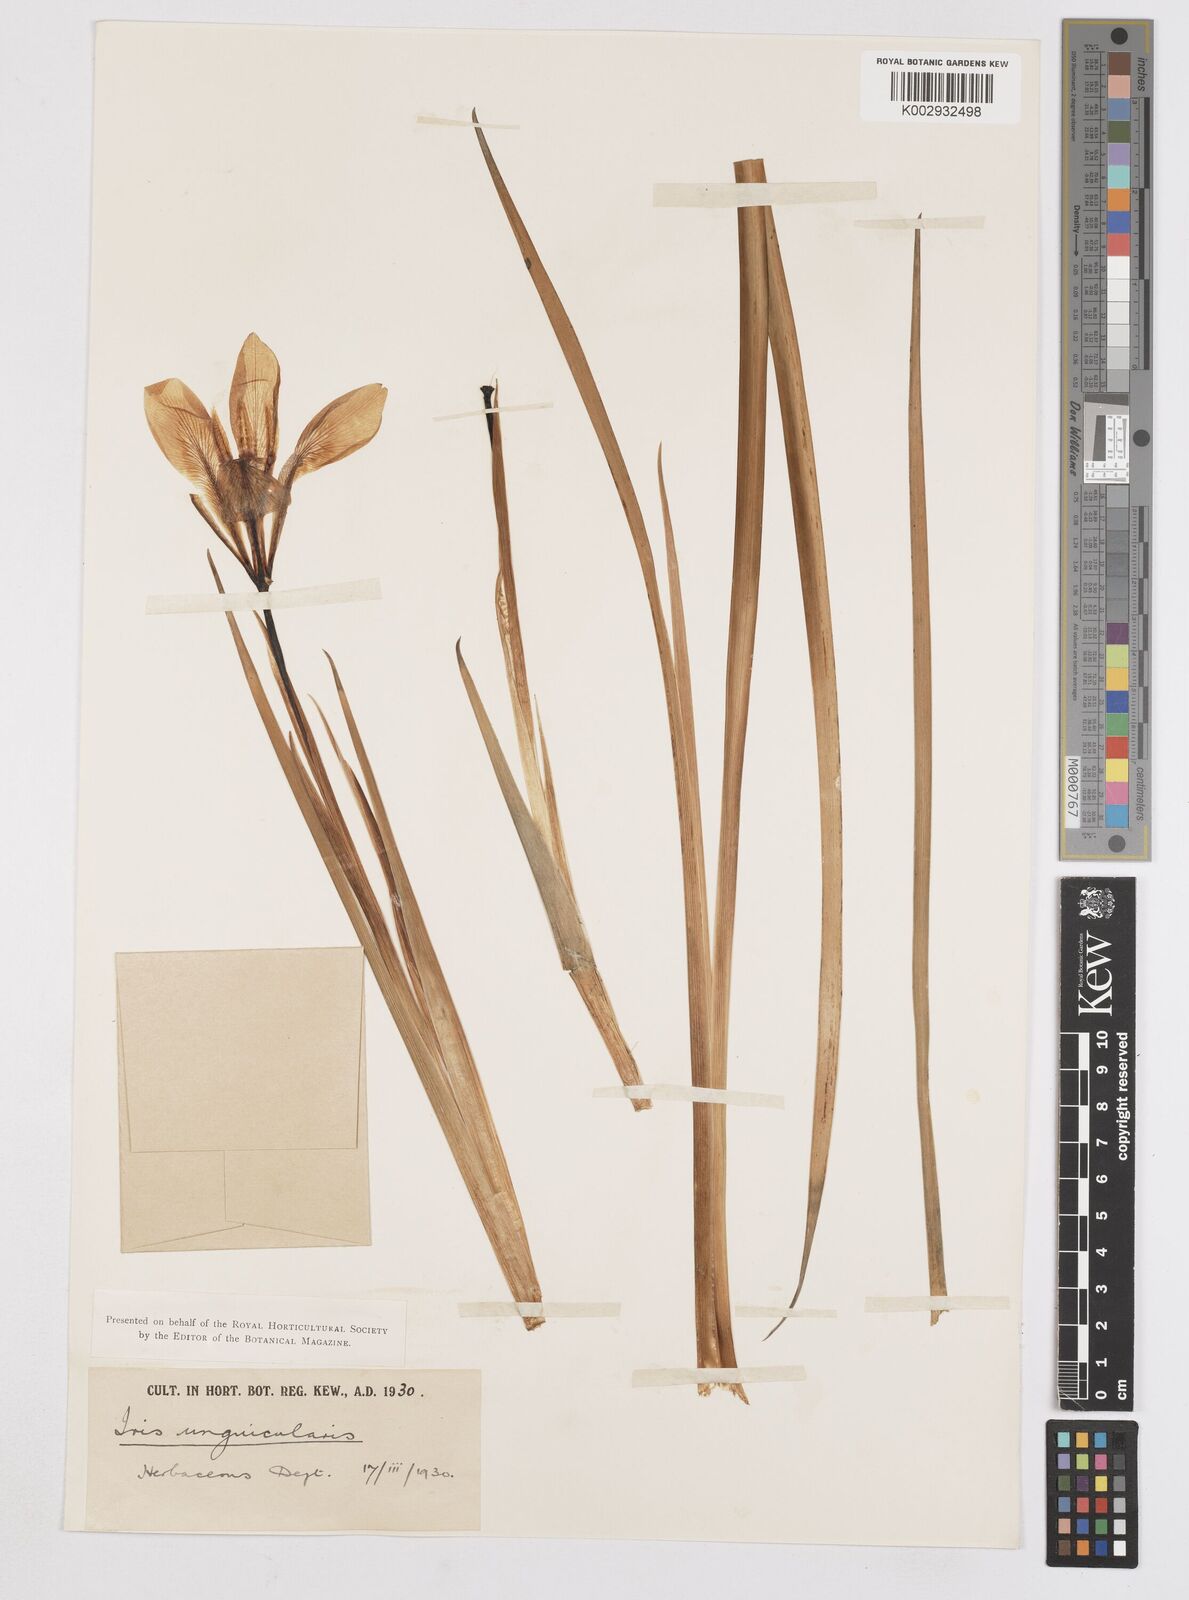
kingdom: Plantae
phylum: Tracheophyta
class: Liliopsida
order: Asparagales
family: Iridaceae
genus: Iris
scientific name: Iris unguicularis
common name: Algerian iris
